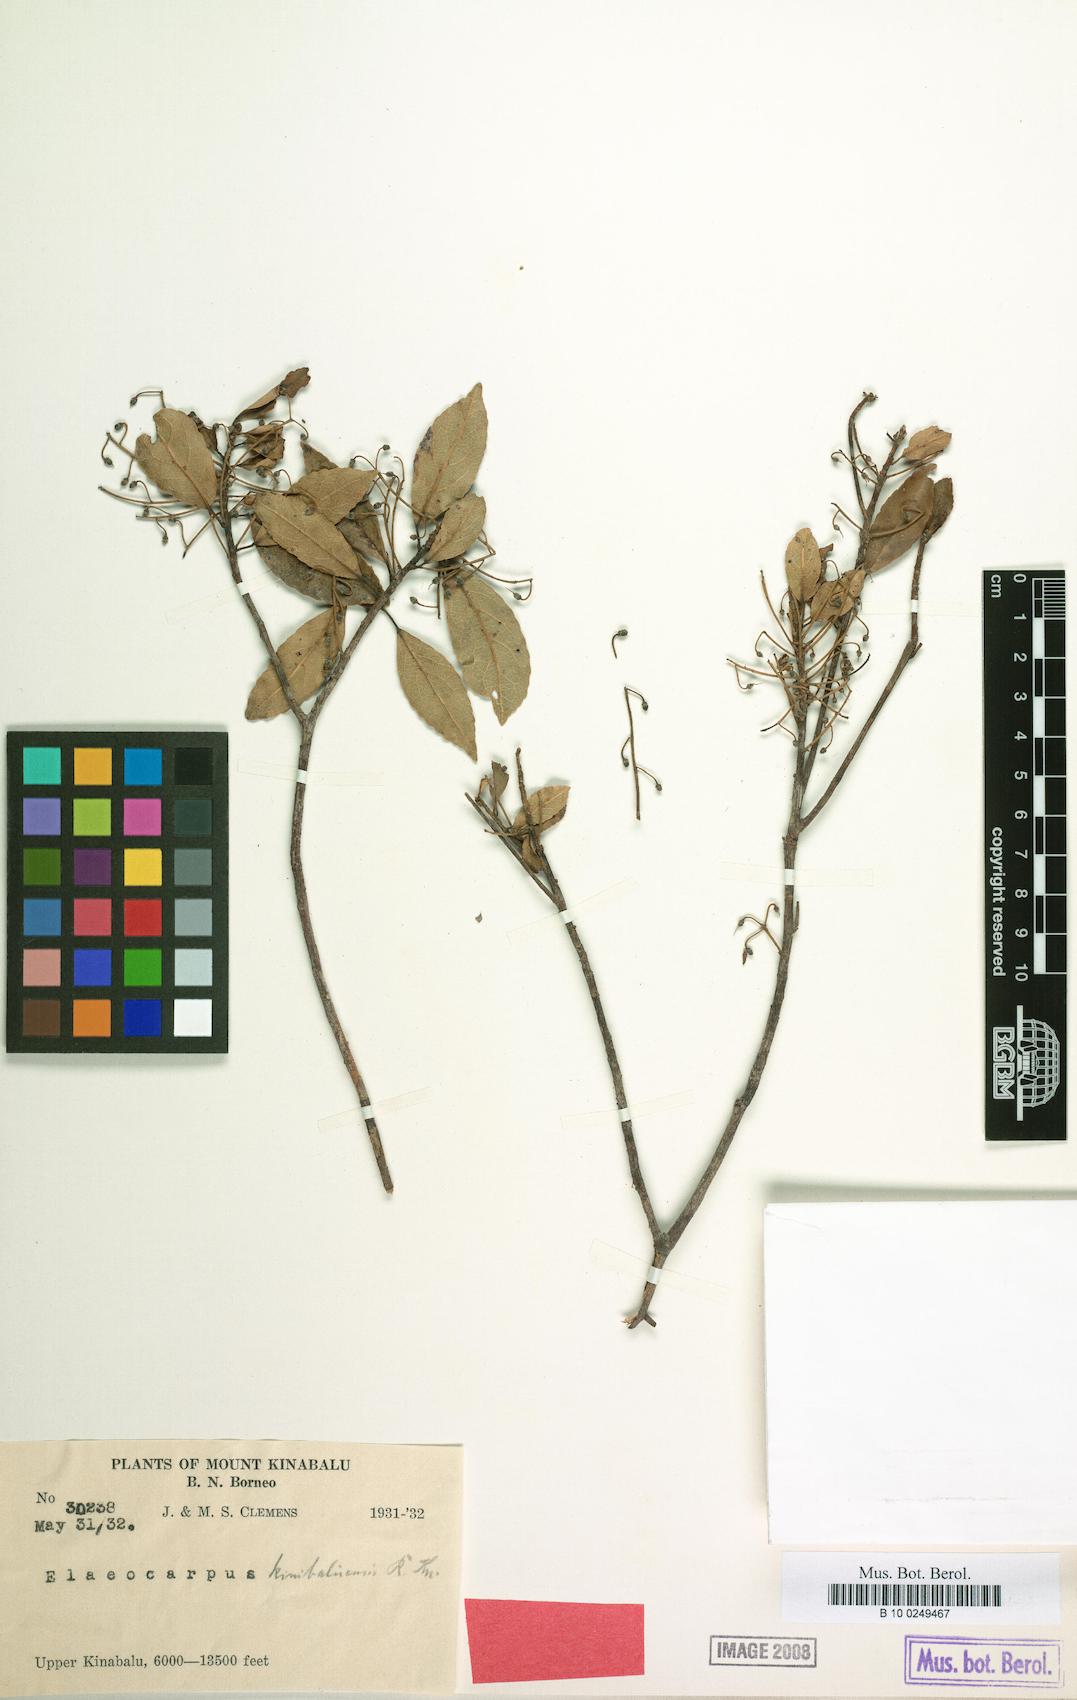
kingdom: Plantae
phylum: Tracheophyta
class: Magnoliopsida
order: Oxalidales
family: Elaeocarpaceae
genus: Elaeocarpus
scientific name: Elaeocarpus kinabaluensis
